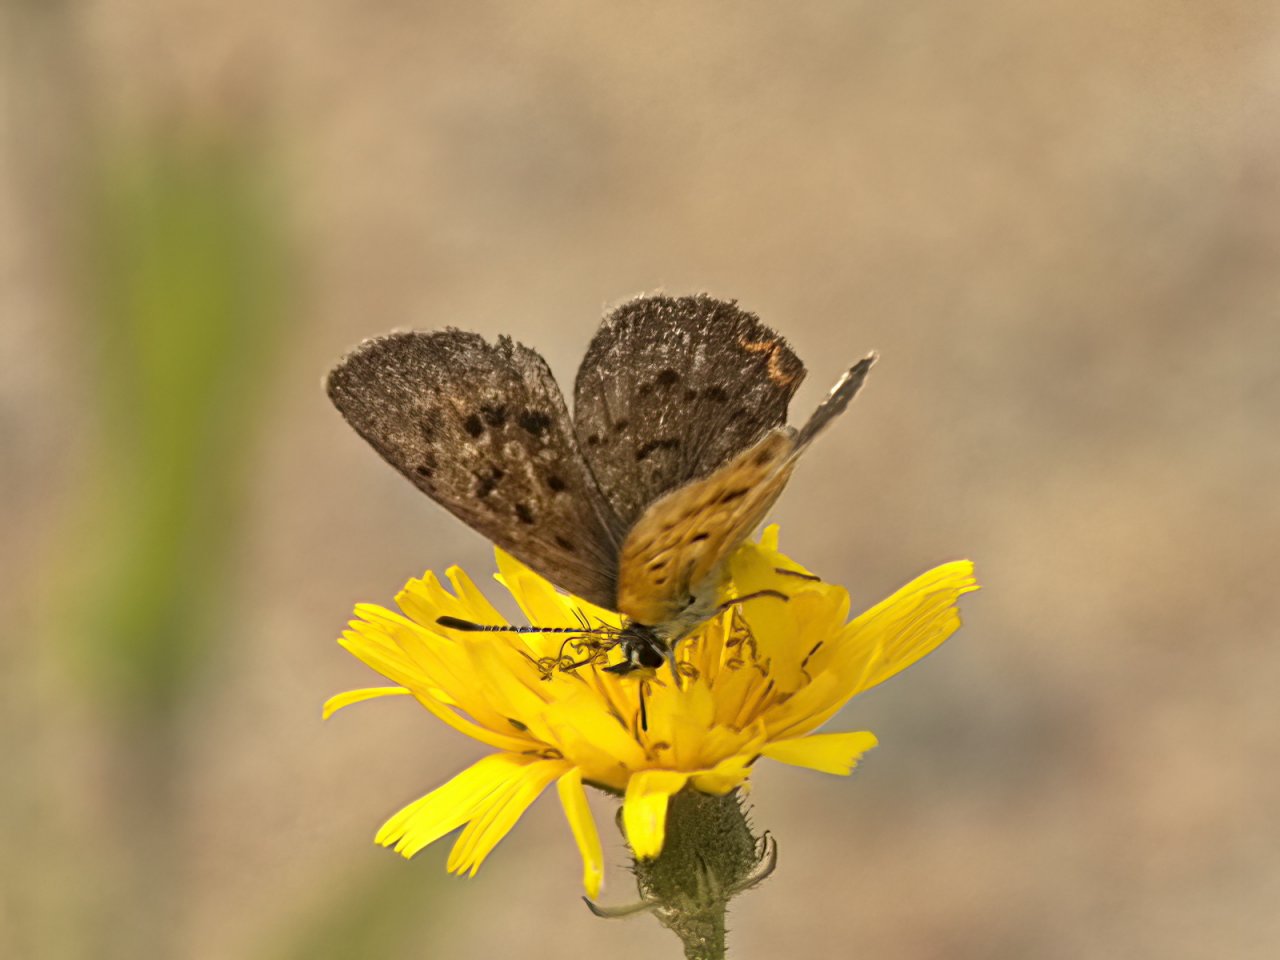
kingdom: Animalia
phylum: Arthropoda
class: Insecta
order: Lepidoptera
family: Lycaenidae
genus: Epidemia
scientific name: Epidemia dorcas
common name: Dorcas Copper
